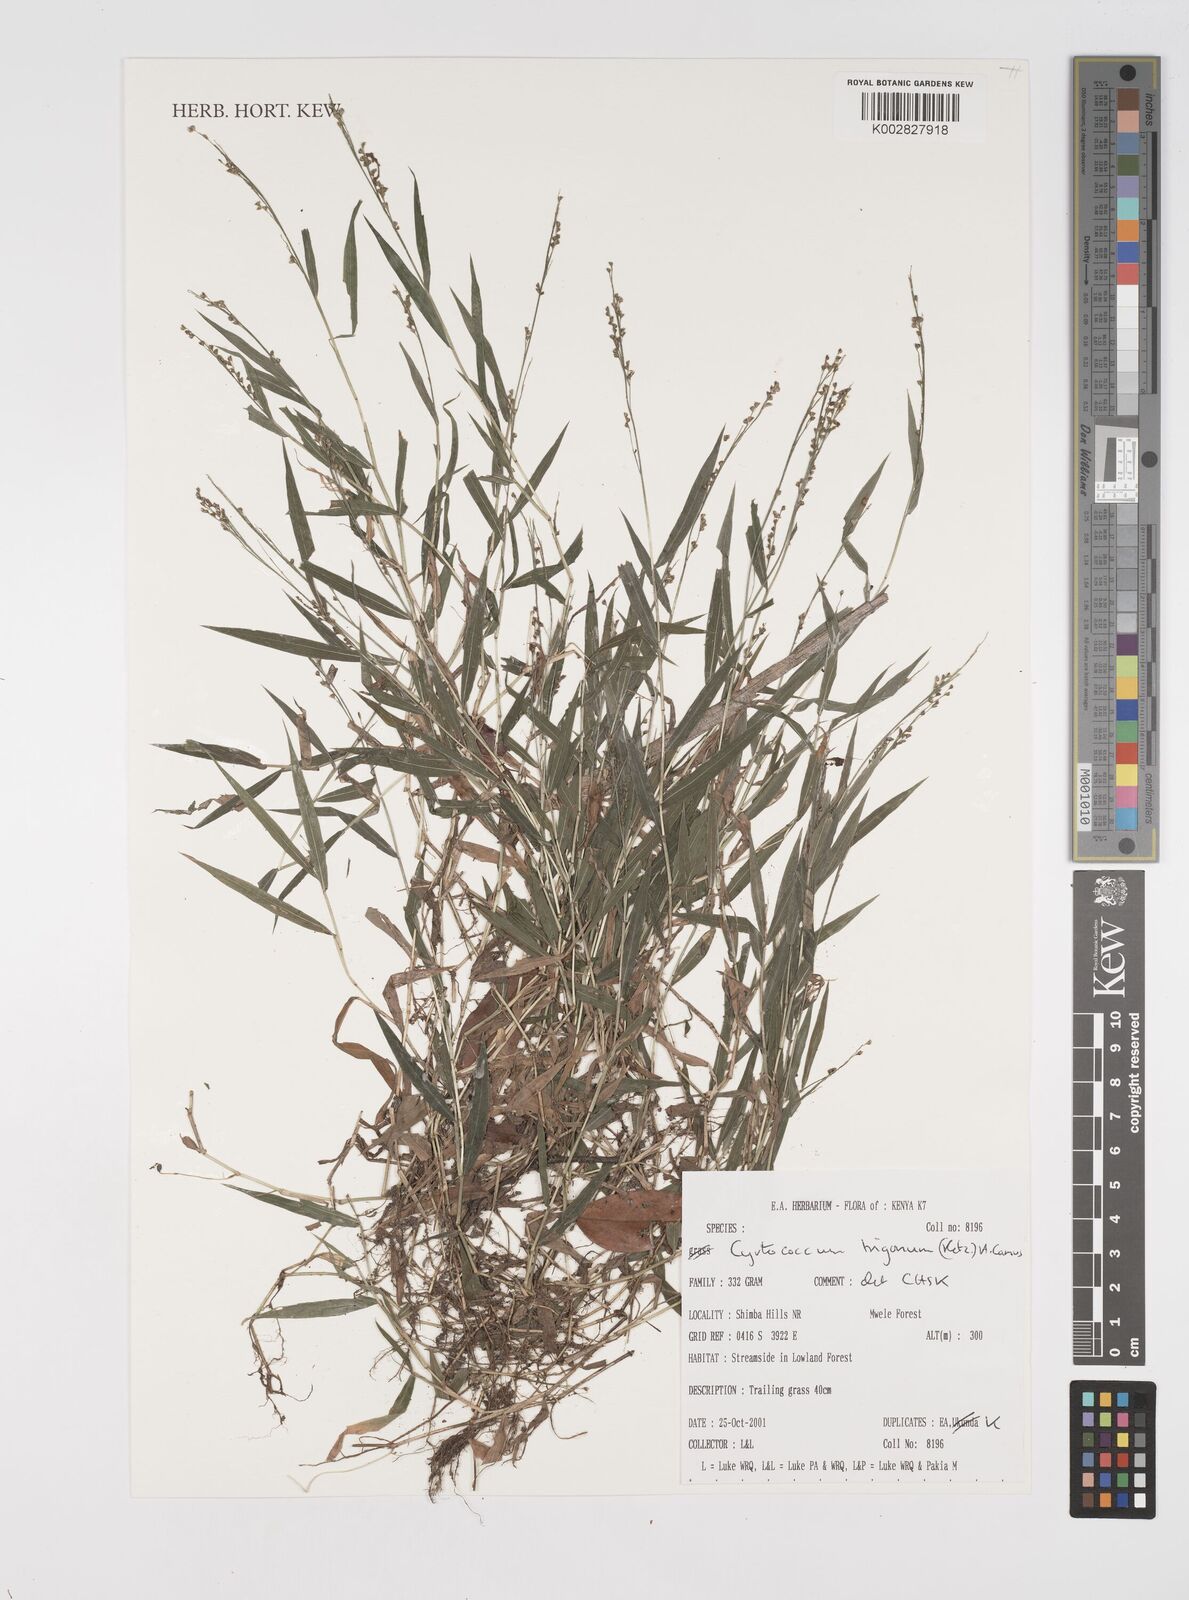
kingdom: Plantae
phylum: Tracheophyta
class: Liliopsida
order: Poales
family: Poaceae
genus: Cyrtococcum
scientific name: Cyrtococcum trigonum
